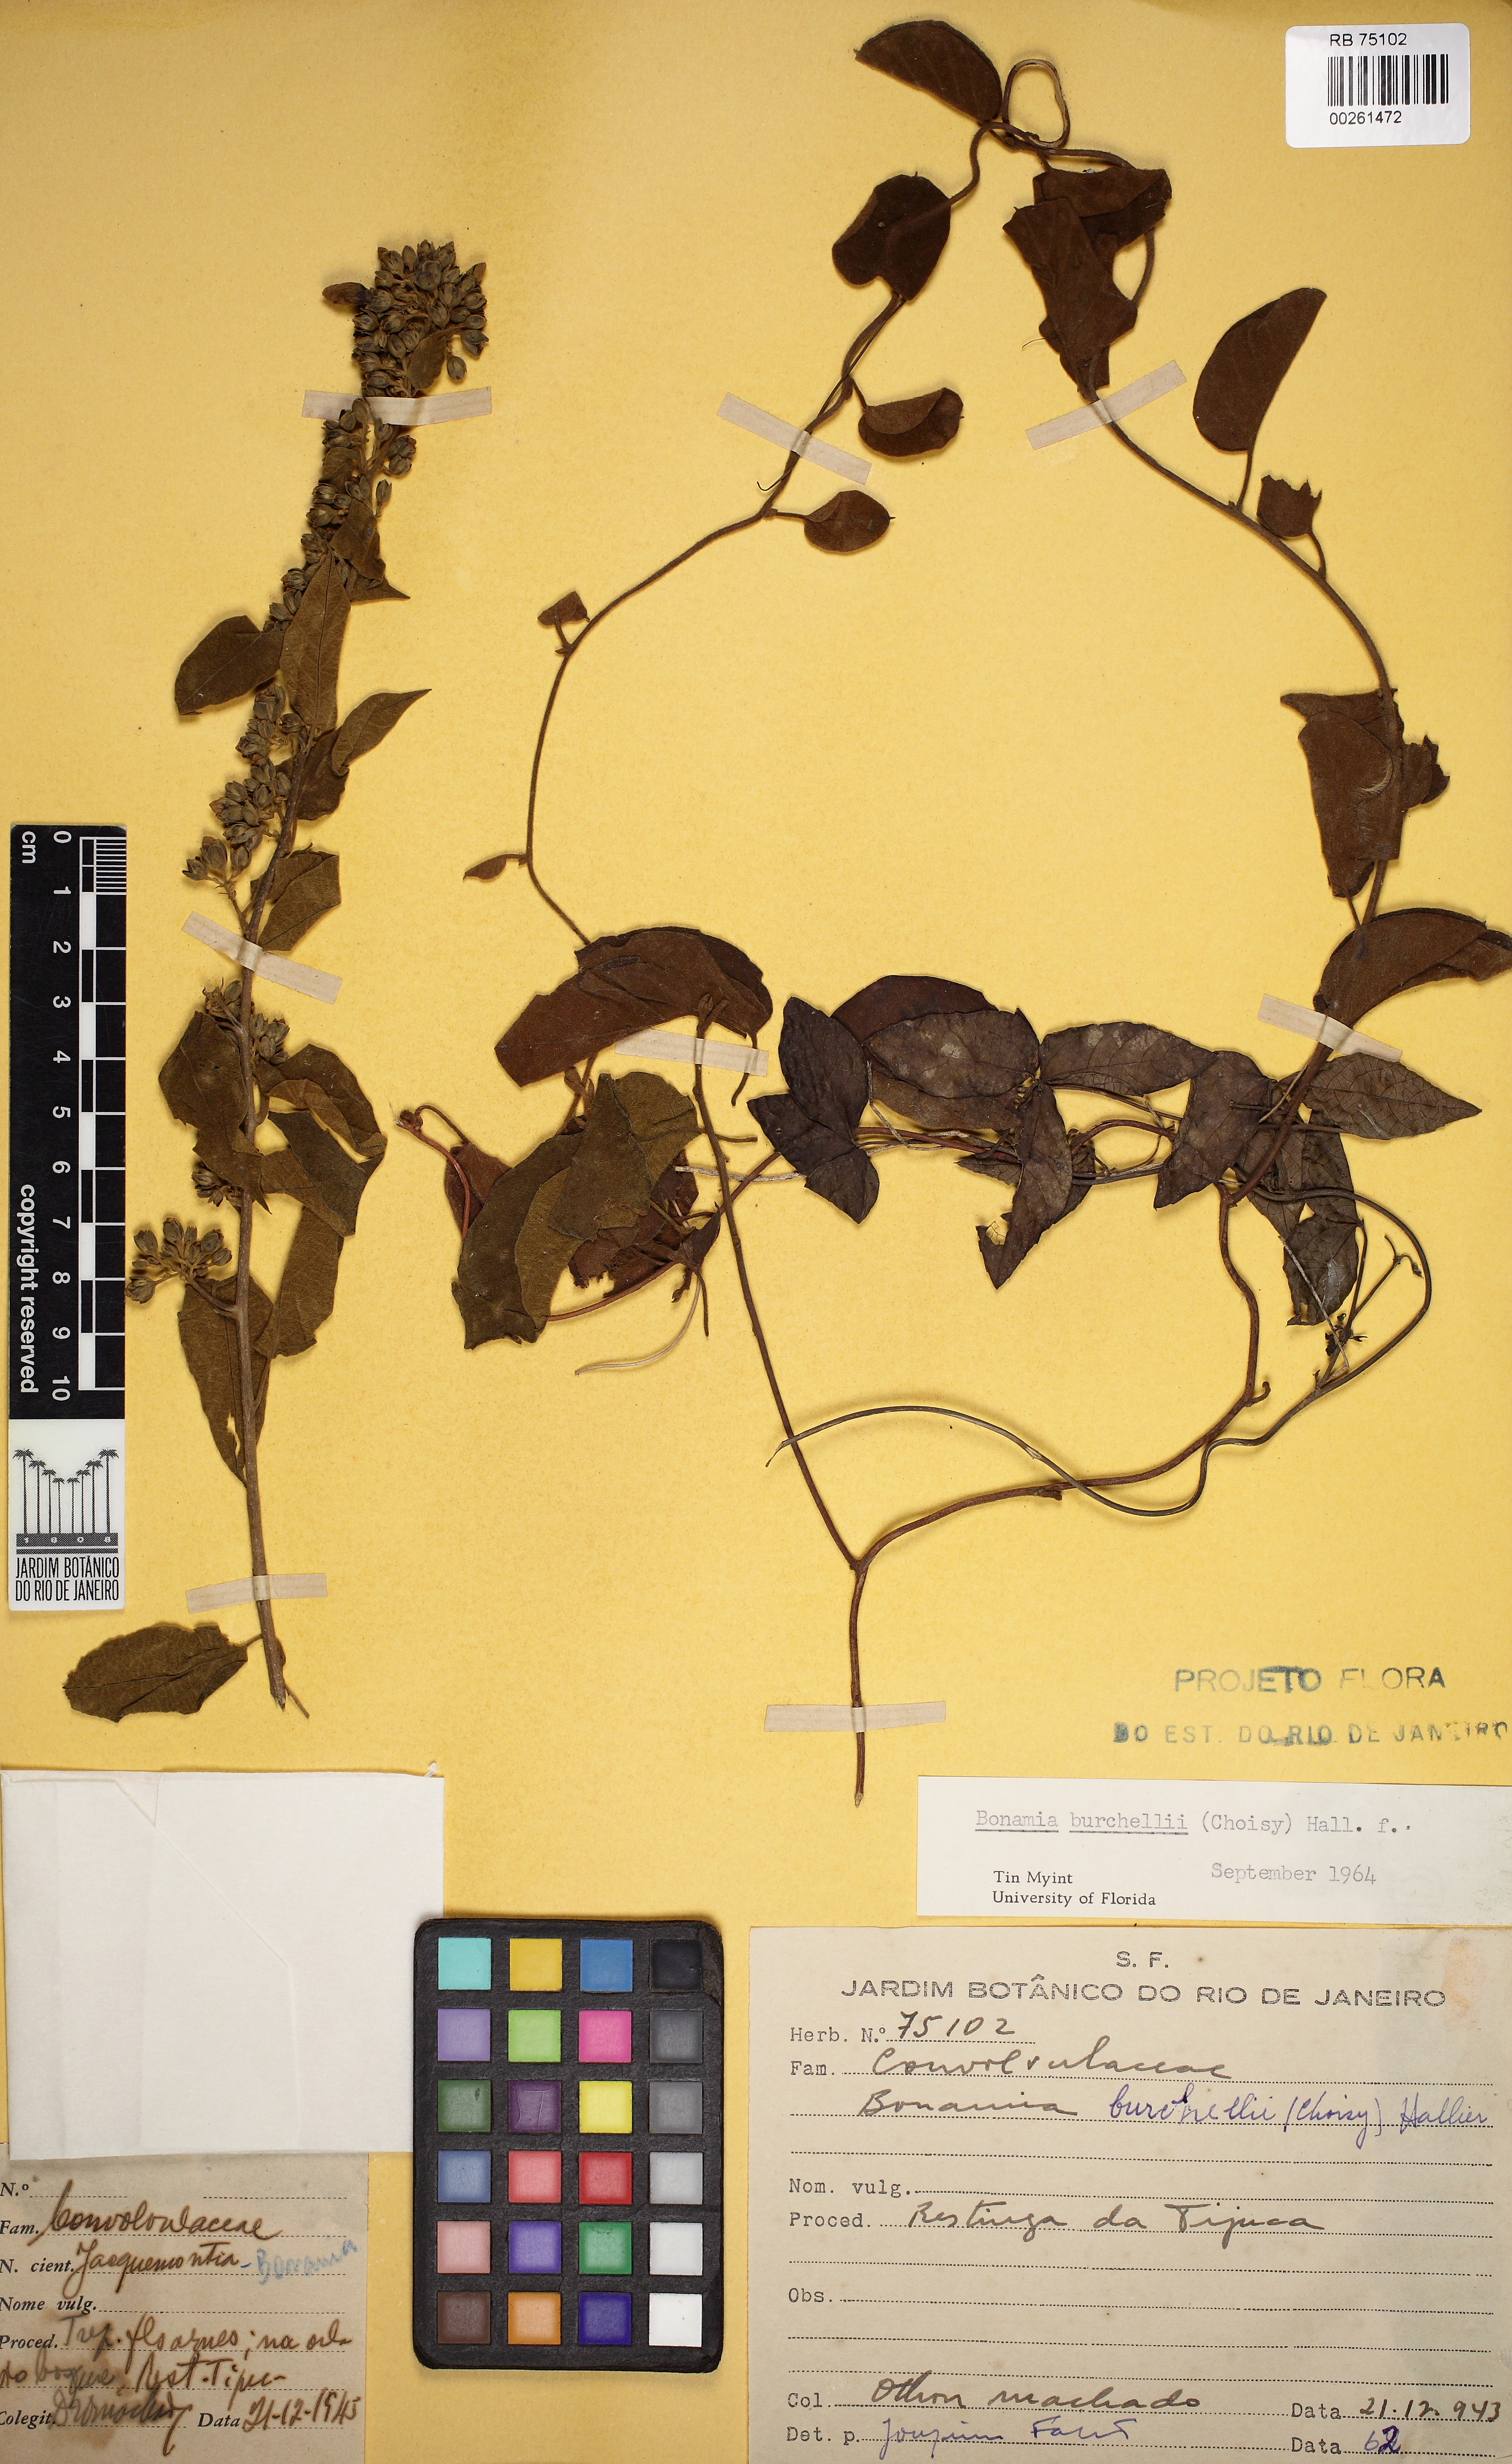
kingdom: Plantae
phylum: Tracheophyta
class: Magnoliopsida
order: Solanales
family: Convolvulaceae
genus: Bonamia
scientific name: Bonamia agrostopolis
